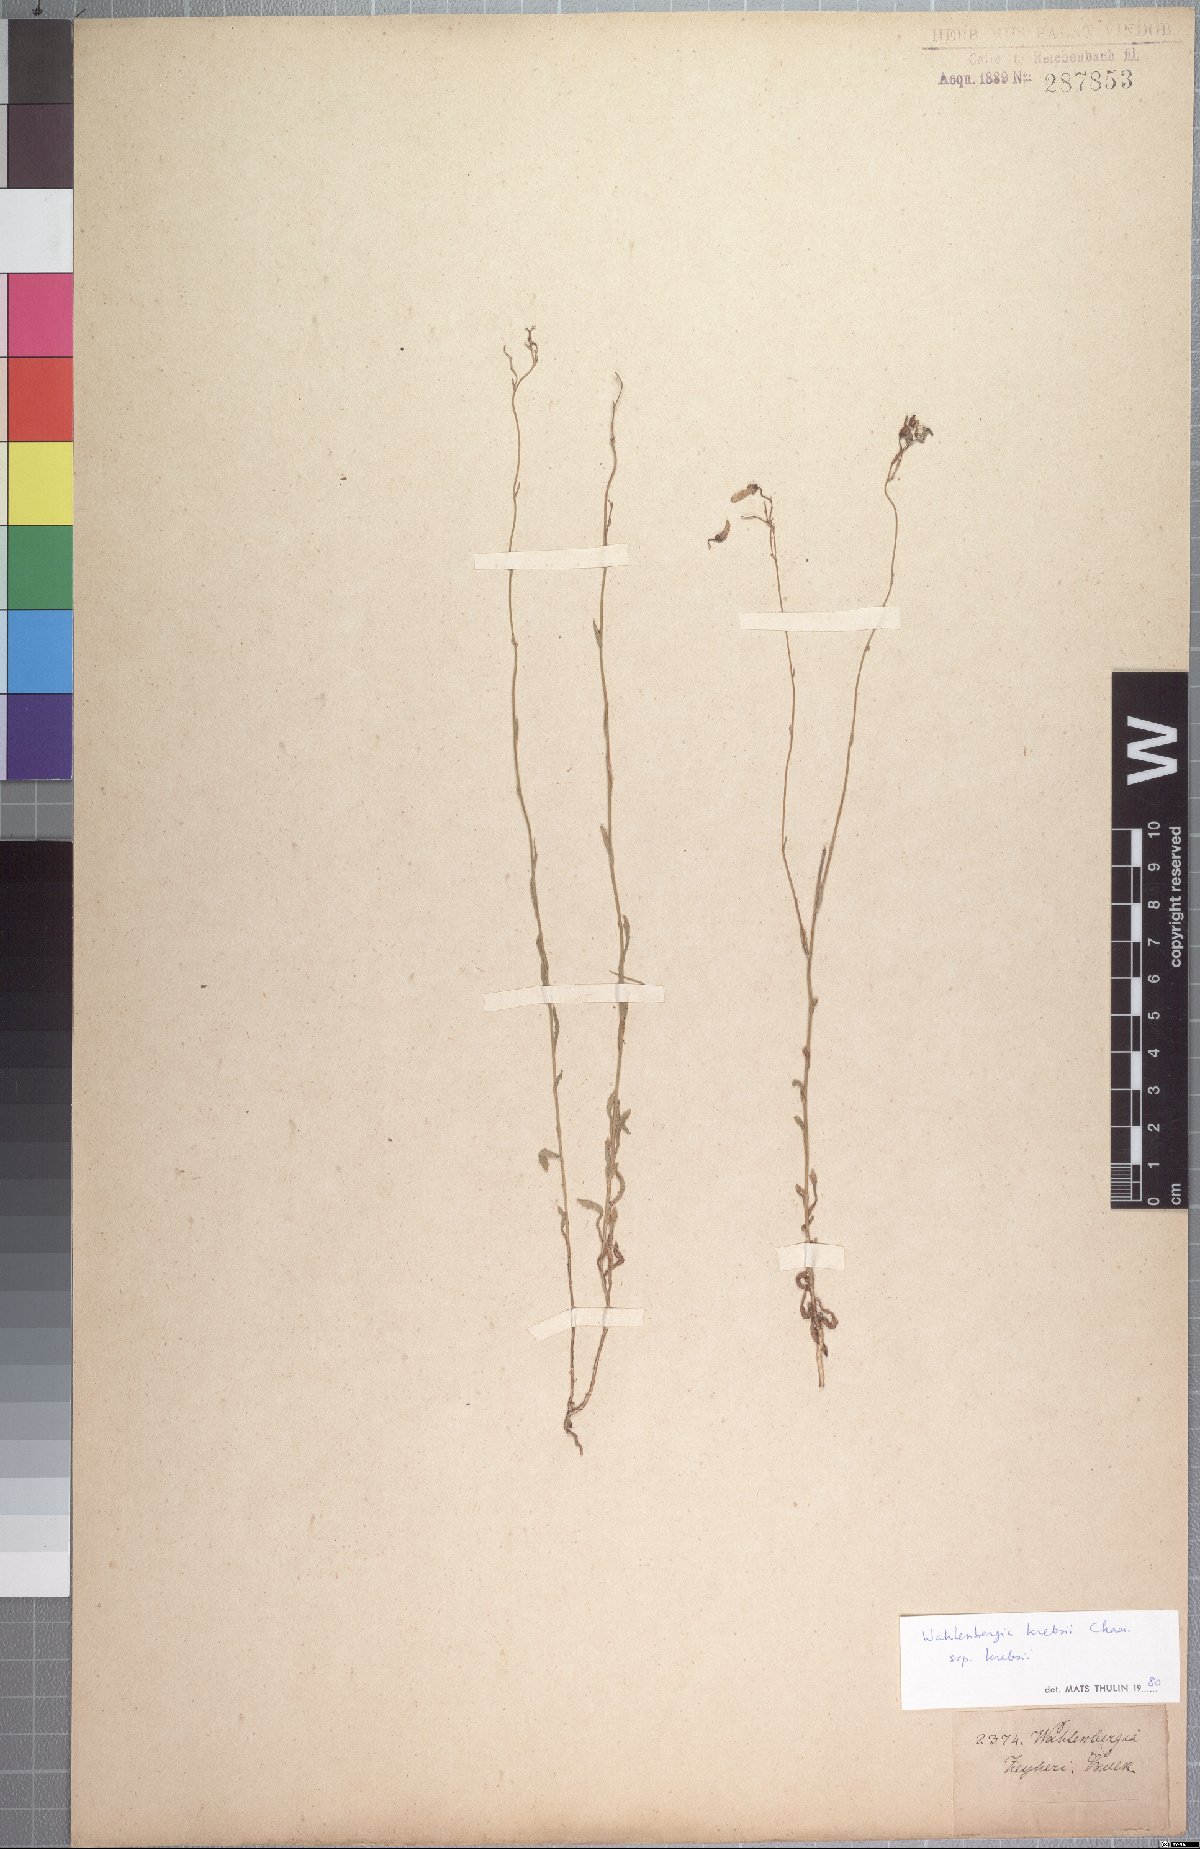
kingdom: Plantae
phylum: Tracheophyta
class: Magnoliopsida
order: Asterales
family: Campanulaceae
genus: Wahlenbergia
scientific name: Wahlenbergia krebsii
